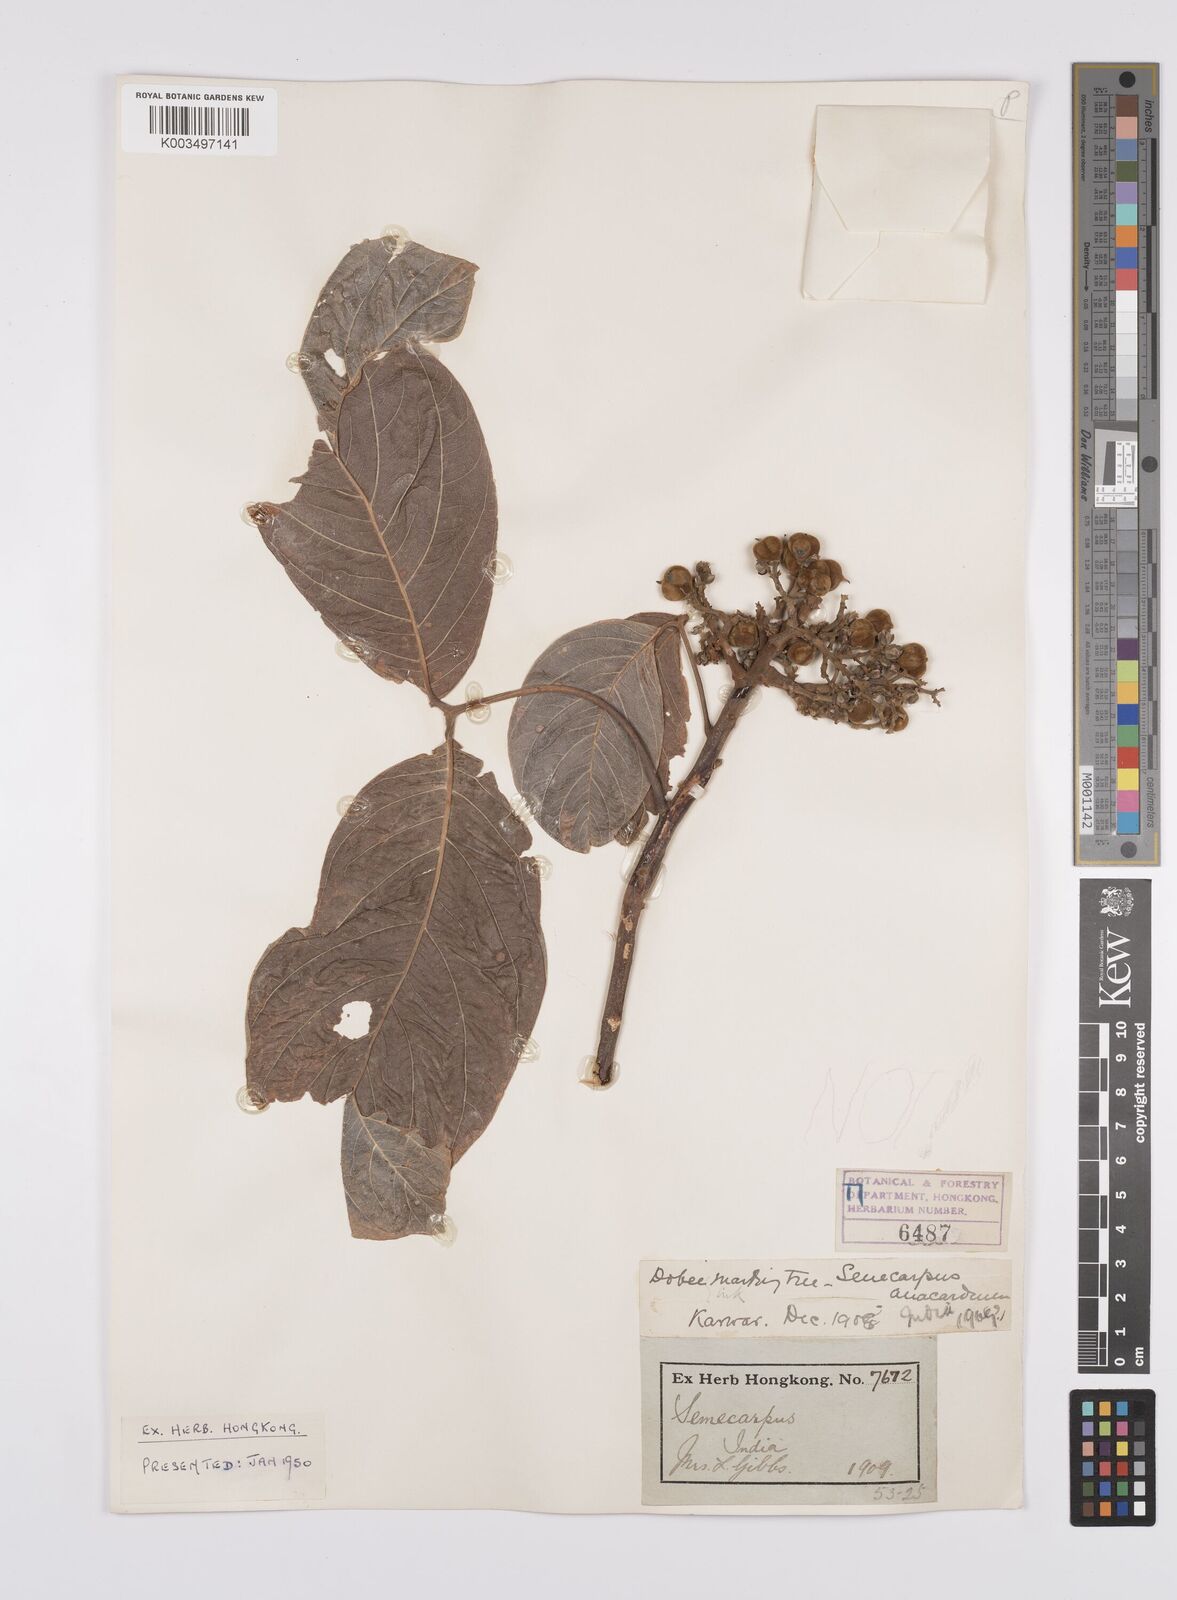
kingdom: Plantae
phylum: Tracheophyta
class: Magnoliopsida
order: Sapindales
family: Anacardiaceae
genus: Semecarpus
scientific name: Semecarpus anacardium
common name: Marking nut-tree
